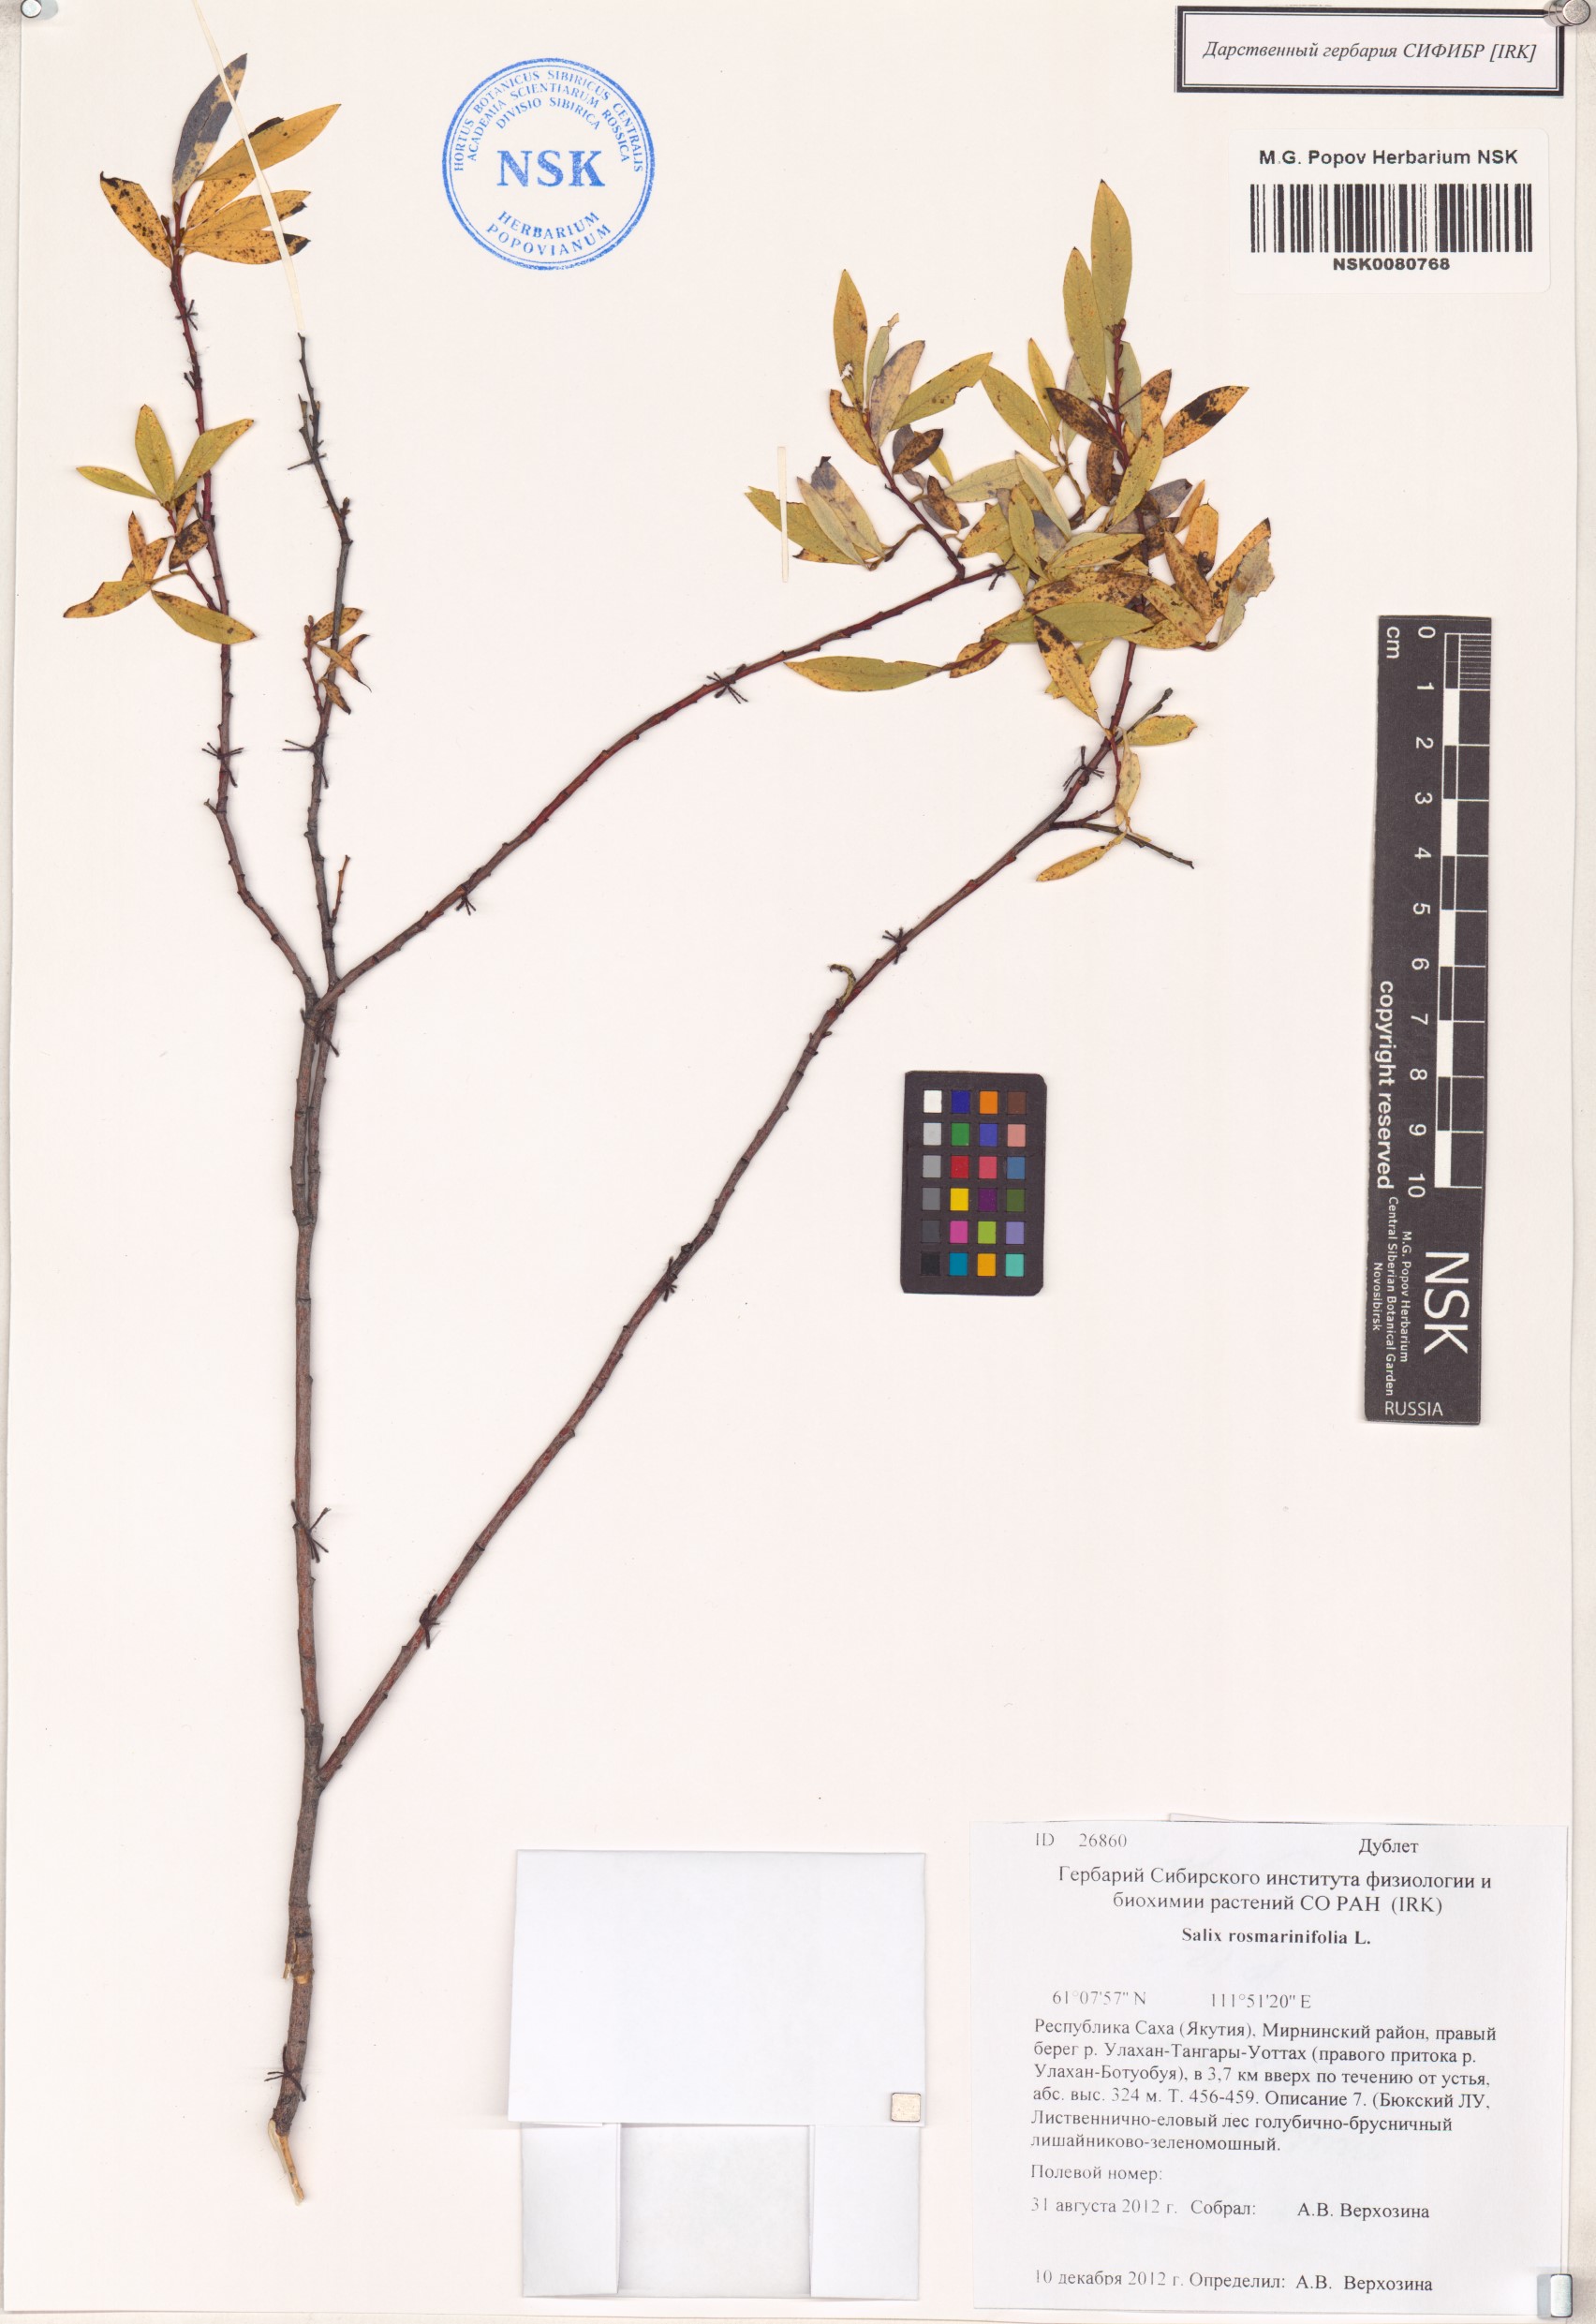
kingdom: Plantae
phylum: Tracheophyta
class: Magnoliopsida
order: Malpighiales
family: Salicaceae
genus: Salix
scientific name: Salix rosmarinifolia
